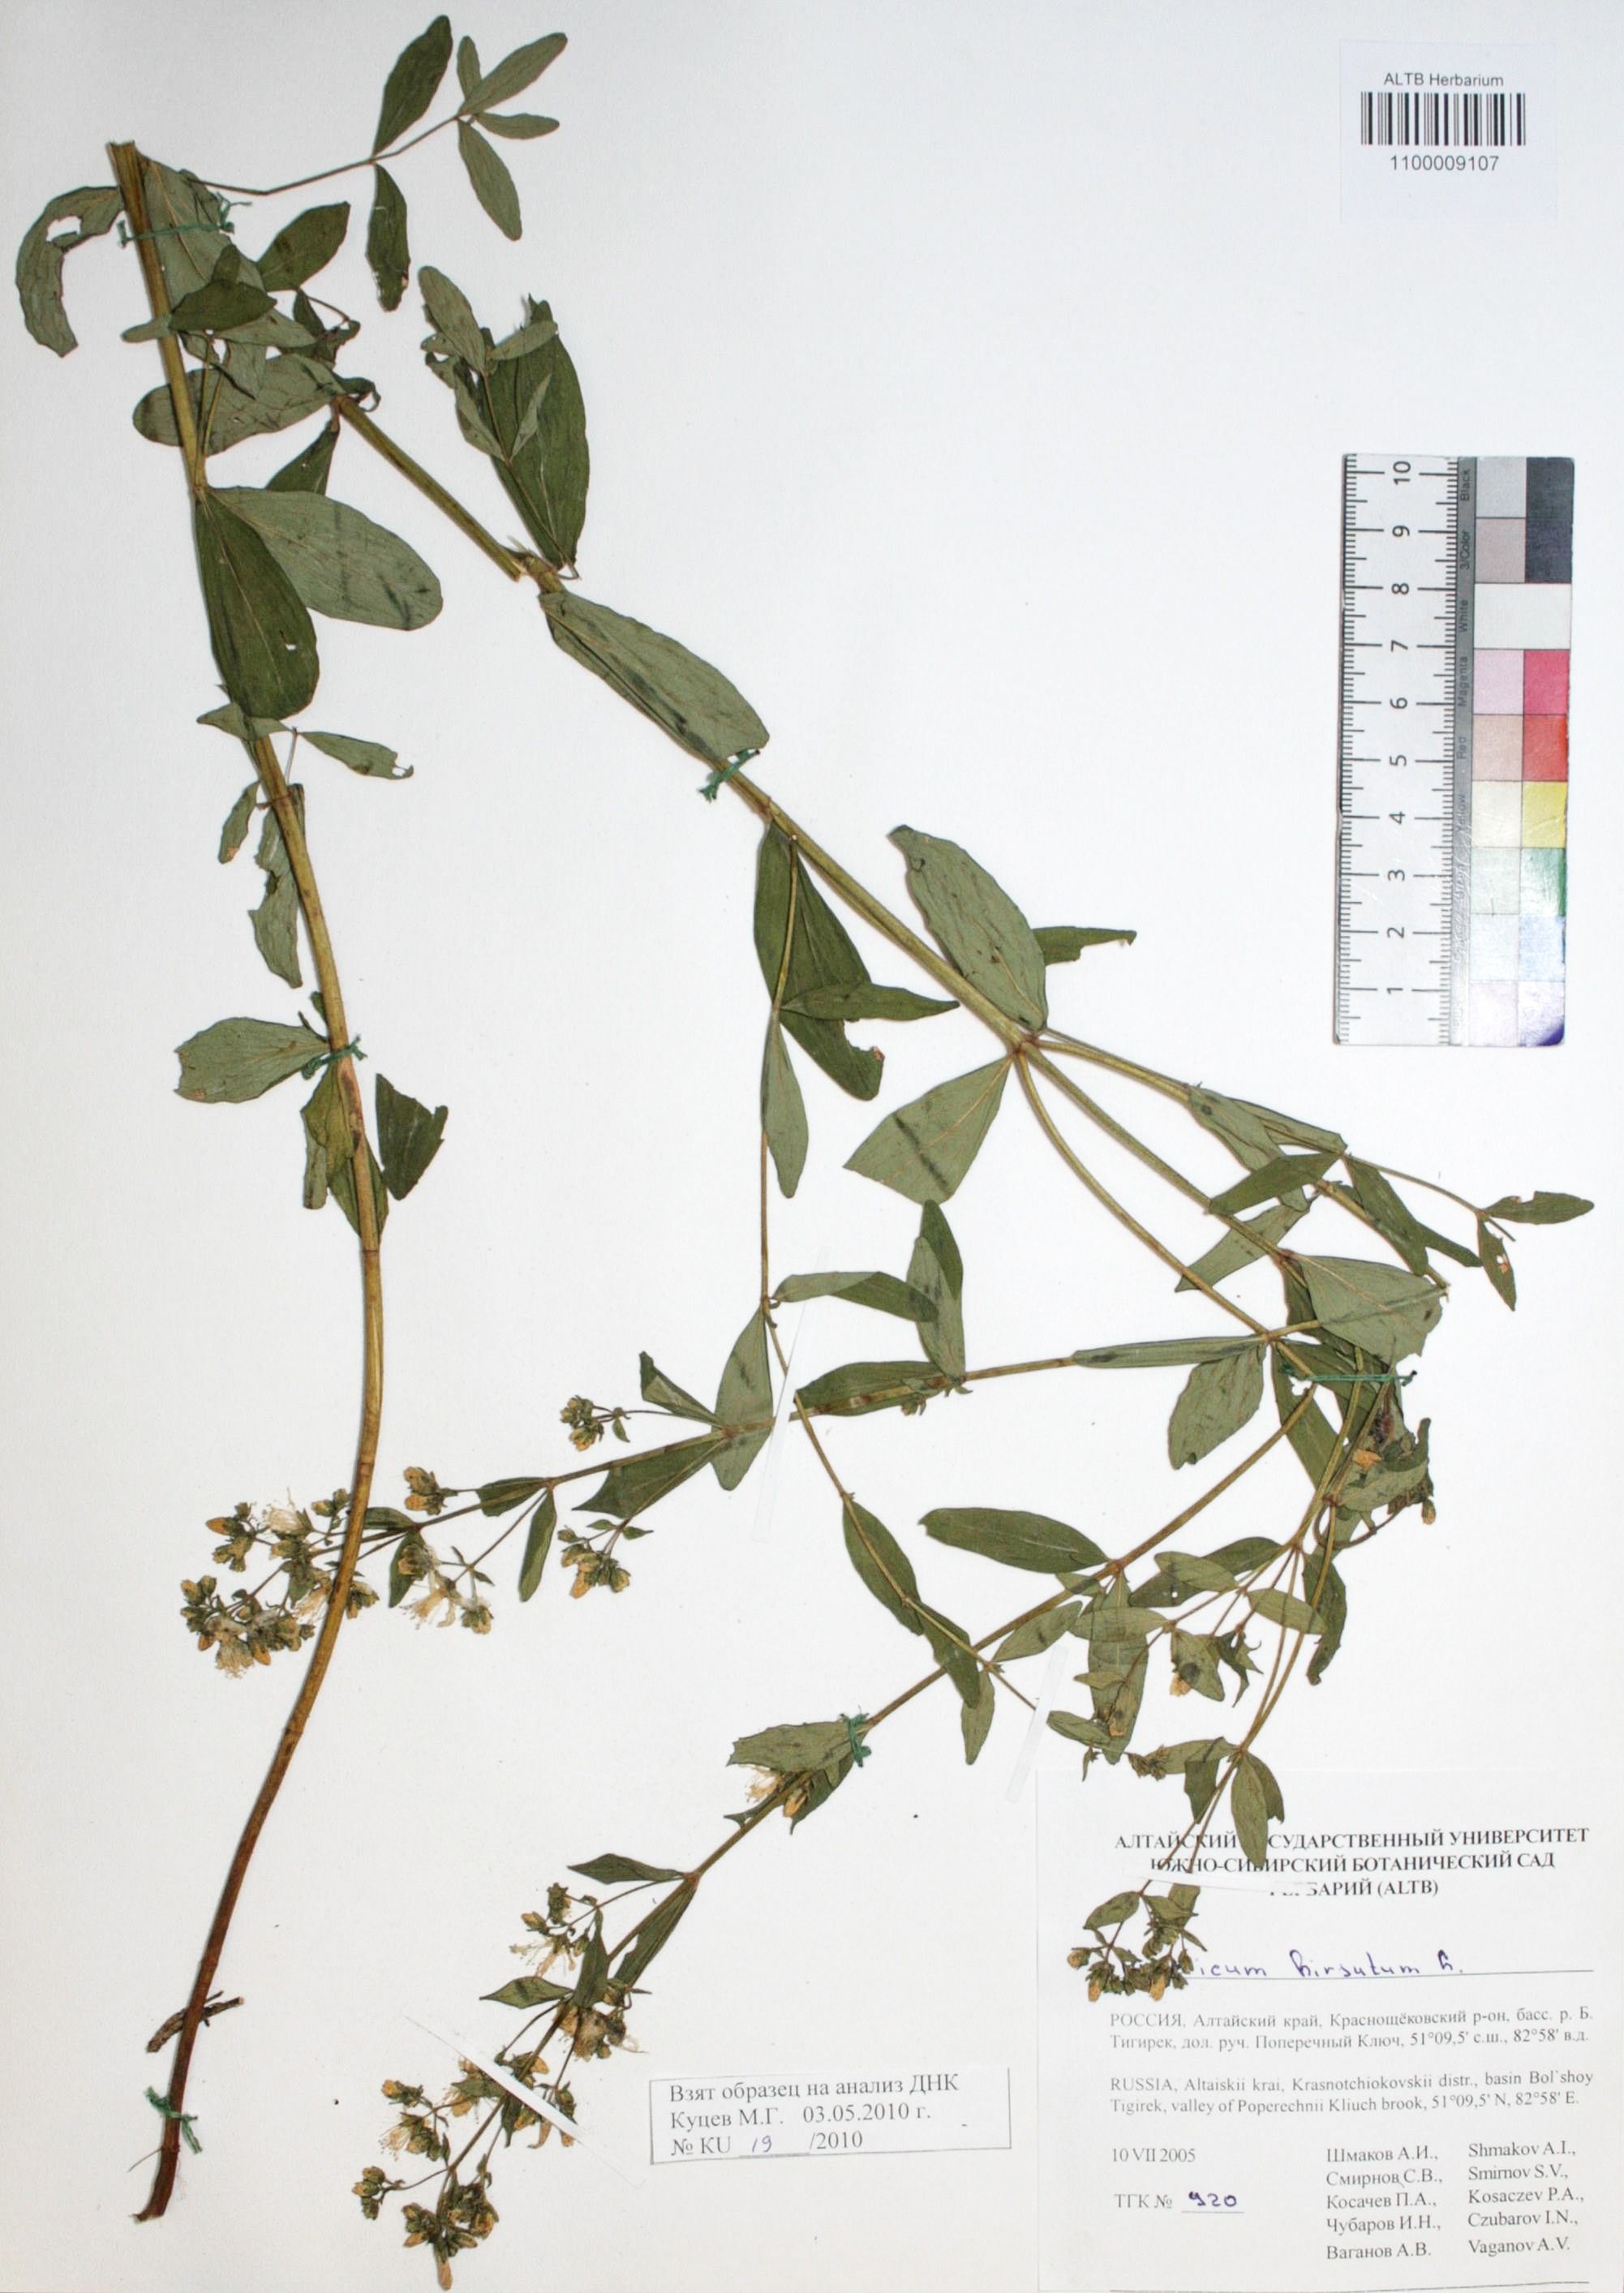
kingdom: Plantae
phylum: Tracheophyta
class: Magnoliopsida
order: Malpighiales
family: Hypericaceae
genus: Hypericum
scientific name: Hypericum hirsutum
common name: Hairy st. john's-wort
